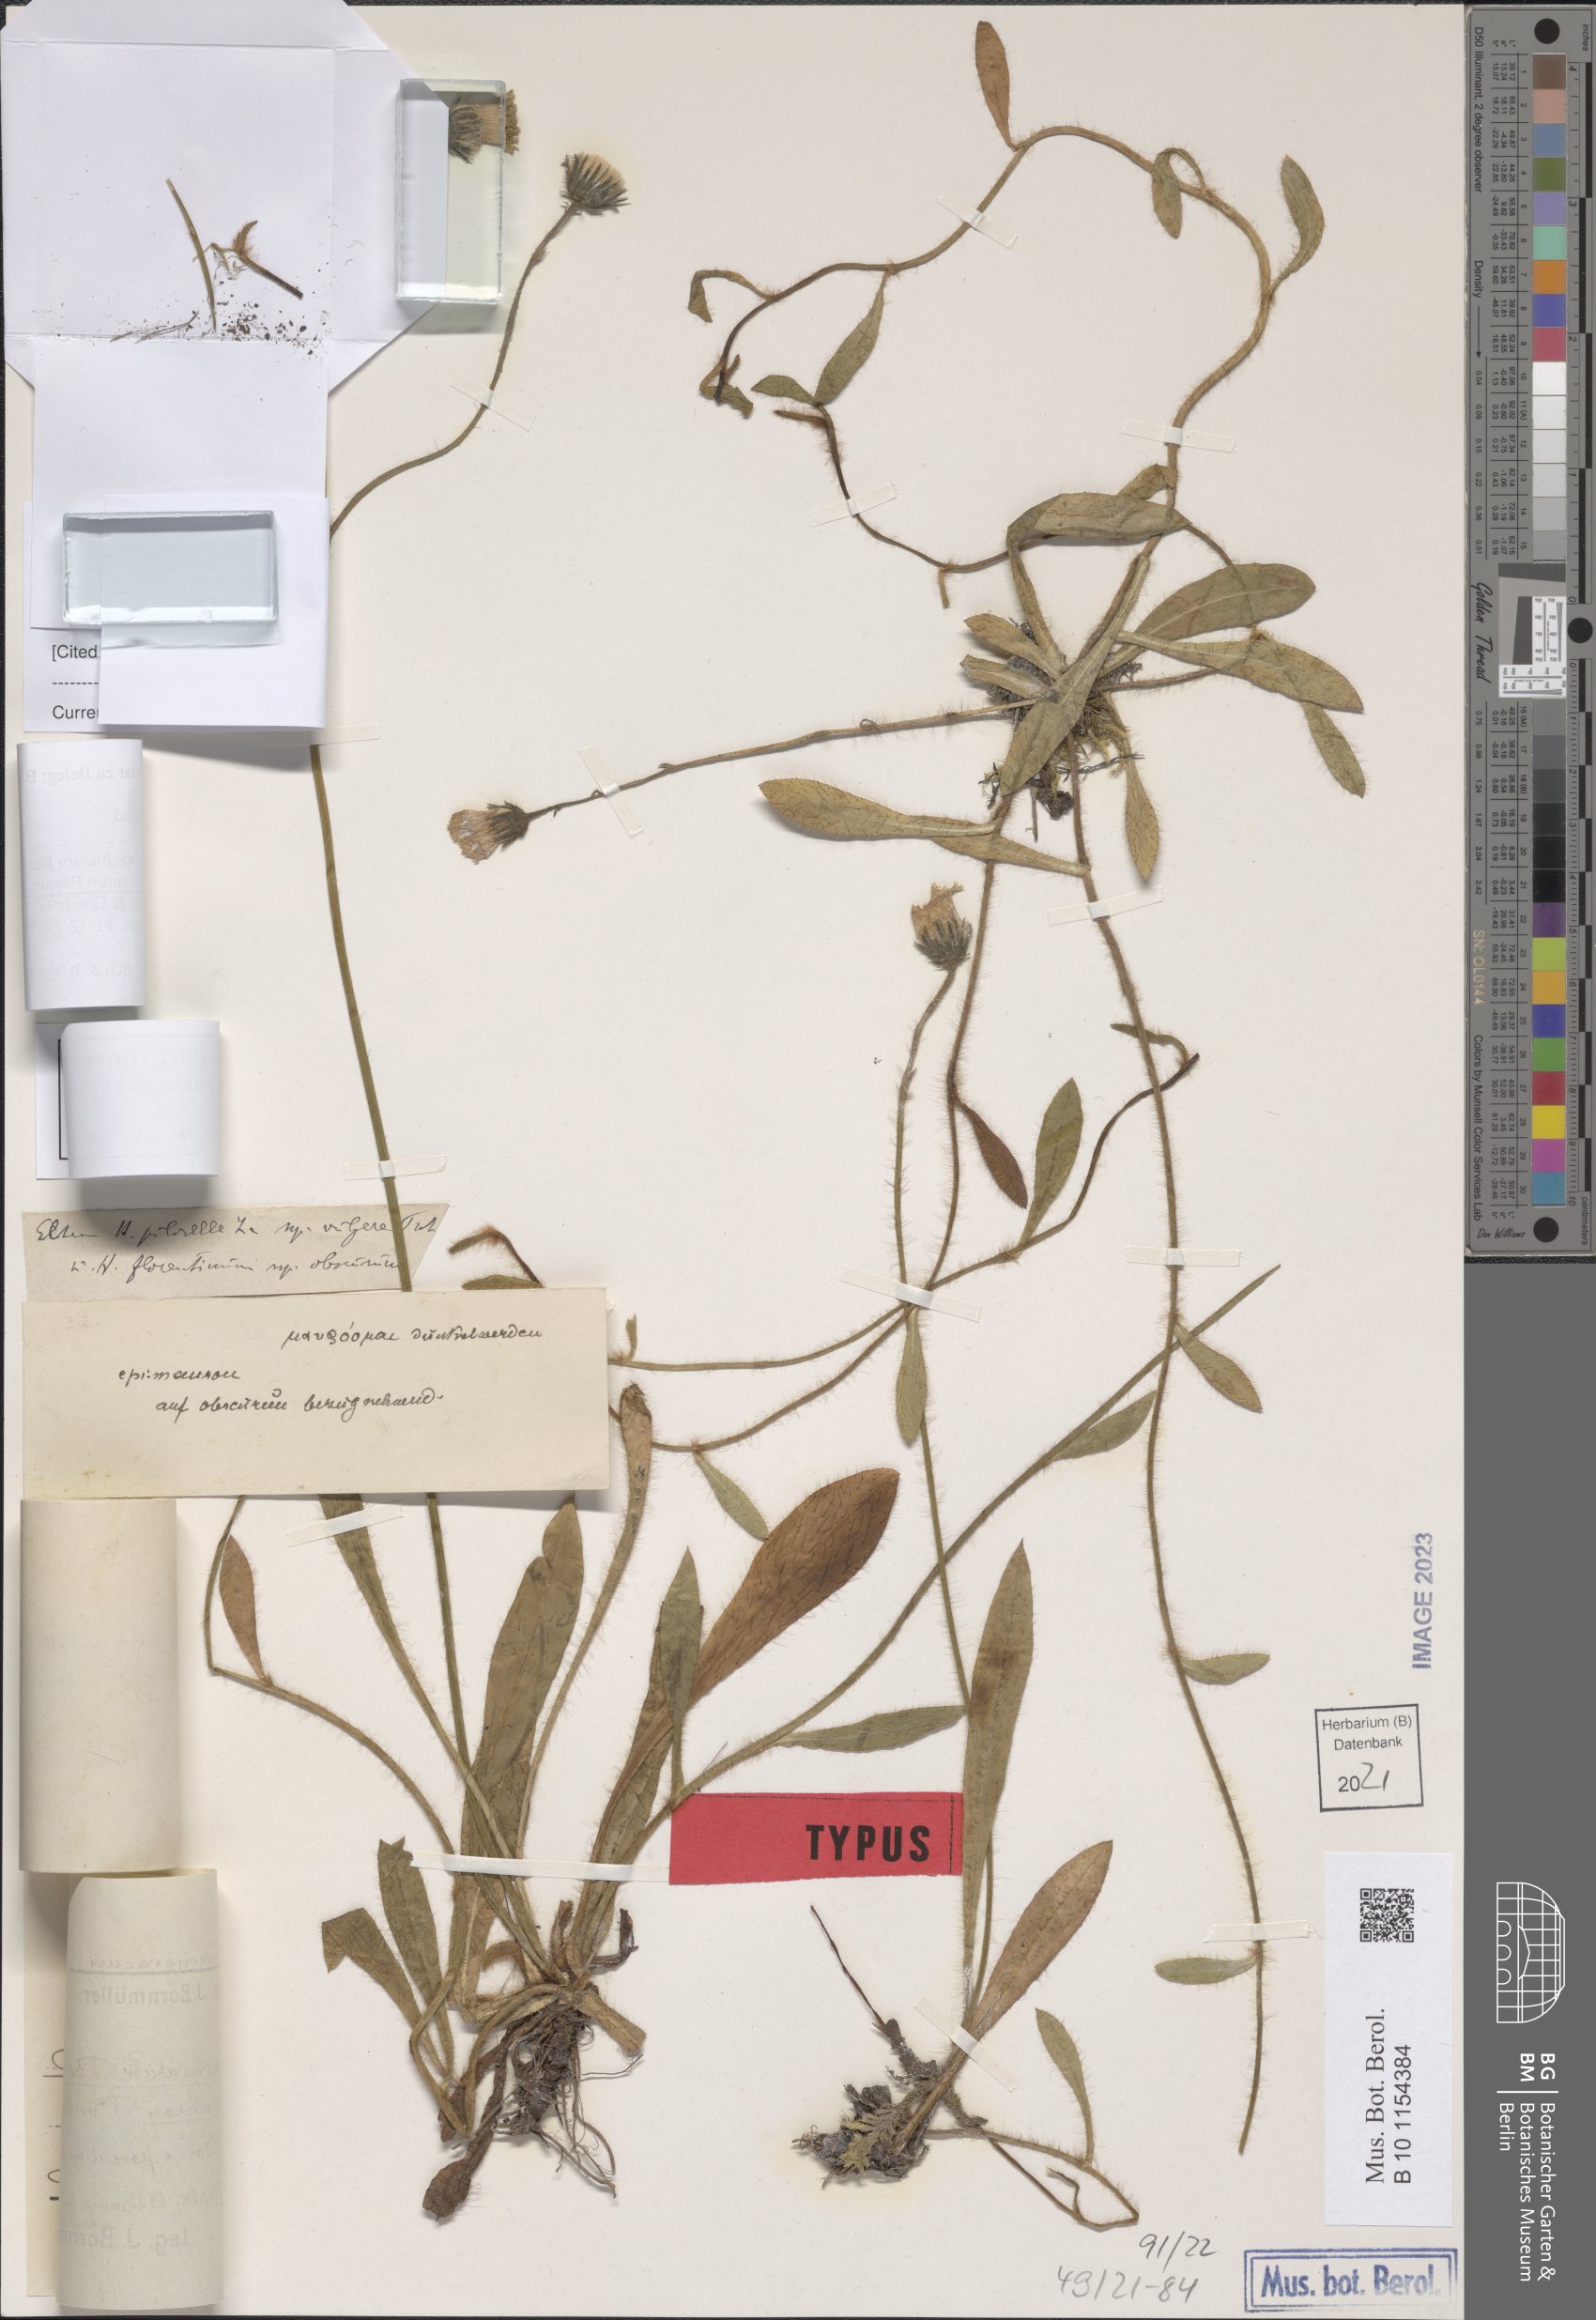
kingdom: Plantae
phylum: Tracheophyta
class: Magnoliopsida
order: Asterales
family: Asteraceae
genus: Pilosella
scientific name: Pilosella acutifolia
